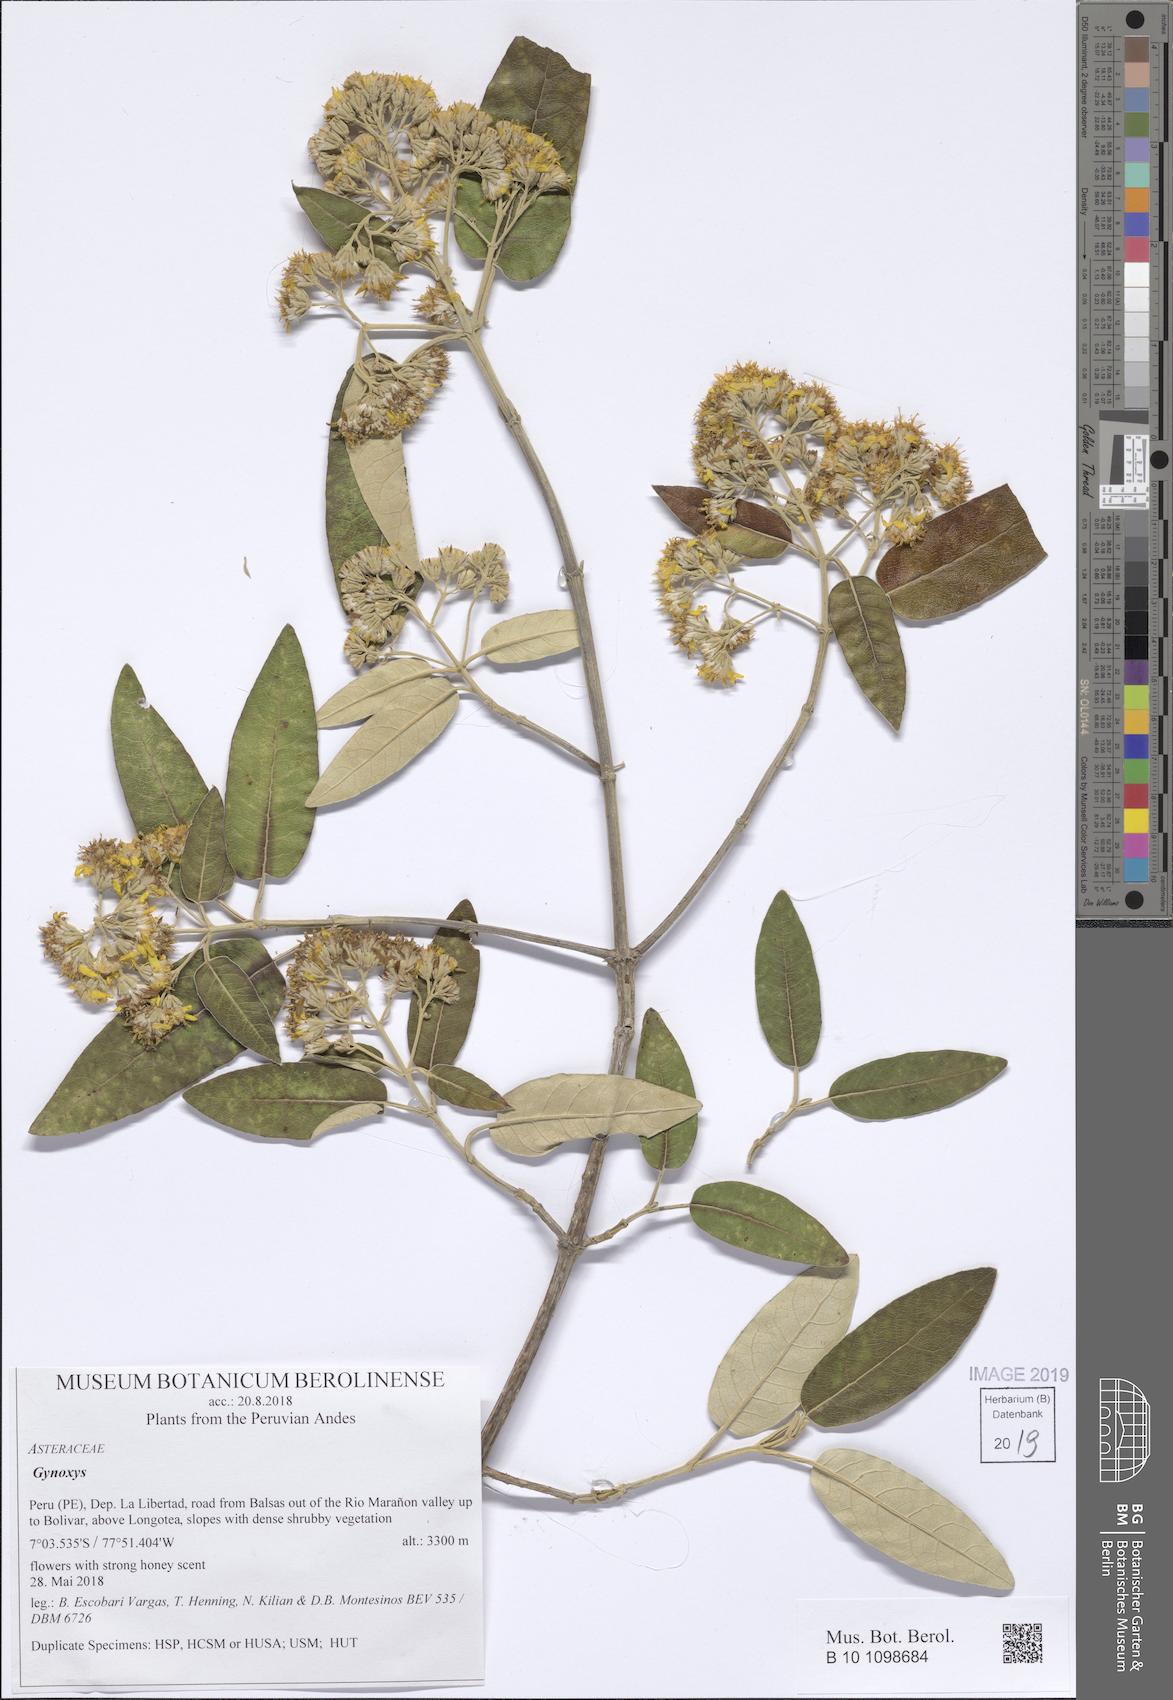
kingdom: Plantae
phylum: Tracheophyta
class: Magnoliopsida
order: Asterales
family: Asteraceae
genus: Gynoxys
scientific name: Gynoxys
